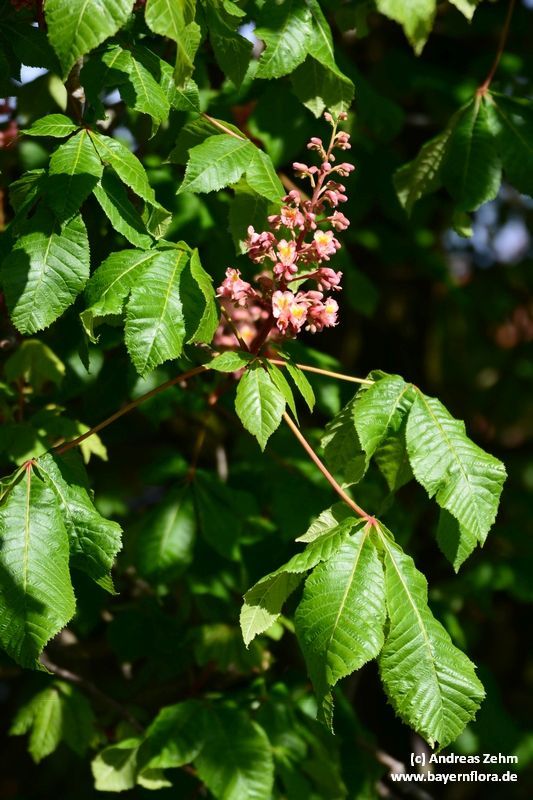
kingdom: Plantae
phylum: Tracheophyta
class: Magnoliopsida
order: Sapindales
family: Sapindaceae
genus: Aesculus
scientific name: Aesculus carnea
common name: Red horse-chestnut
